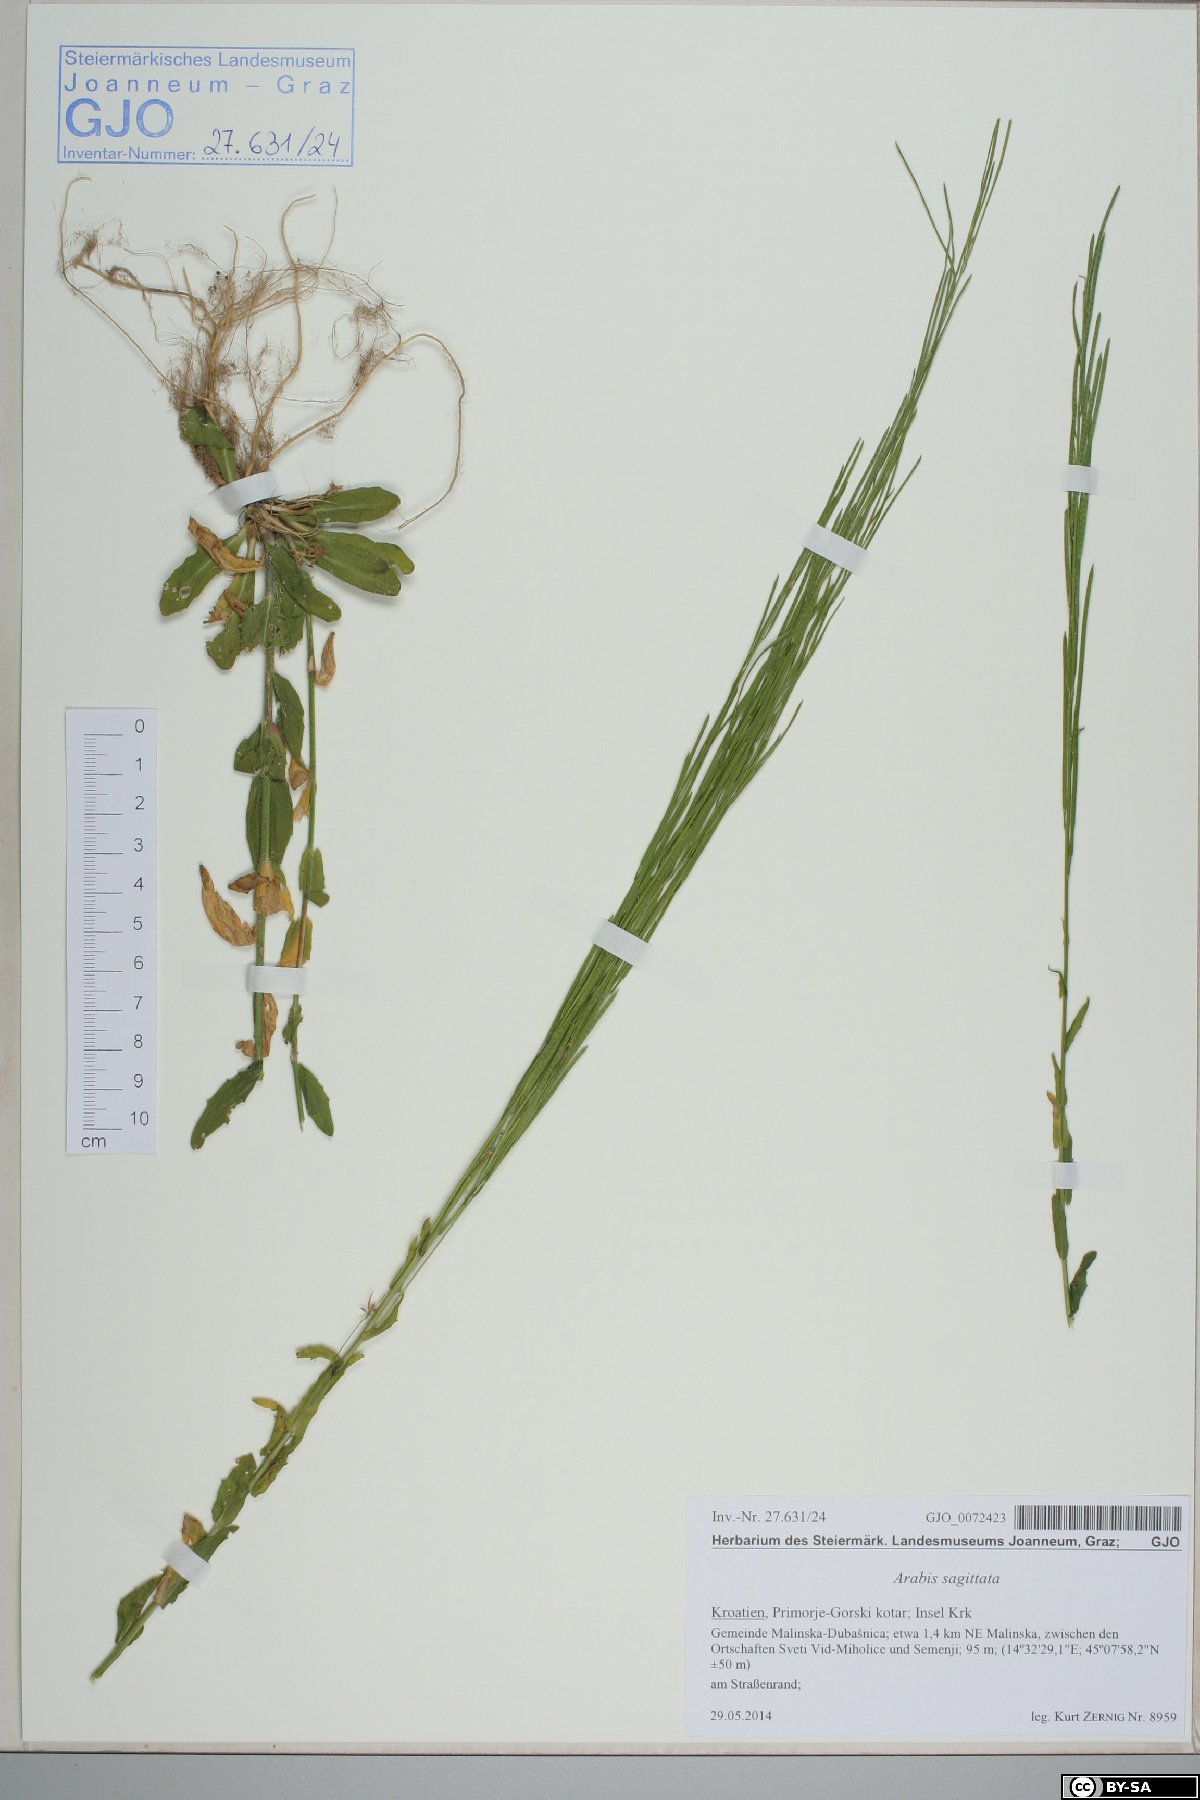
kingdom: Plantae
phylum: Tracheophyta
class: Magnoliopsida
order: Brassicales
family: Brassicaceae
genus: Arabis
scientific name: Arabis sagittata
